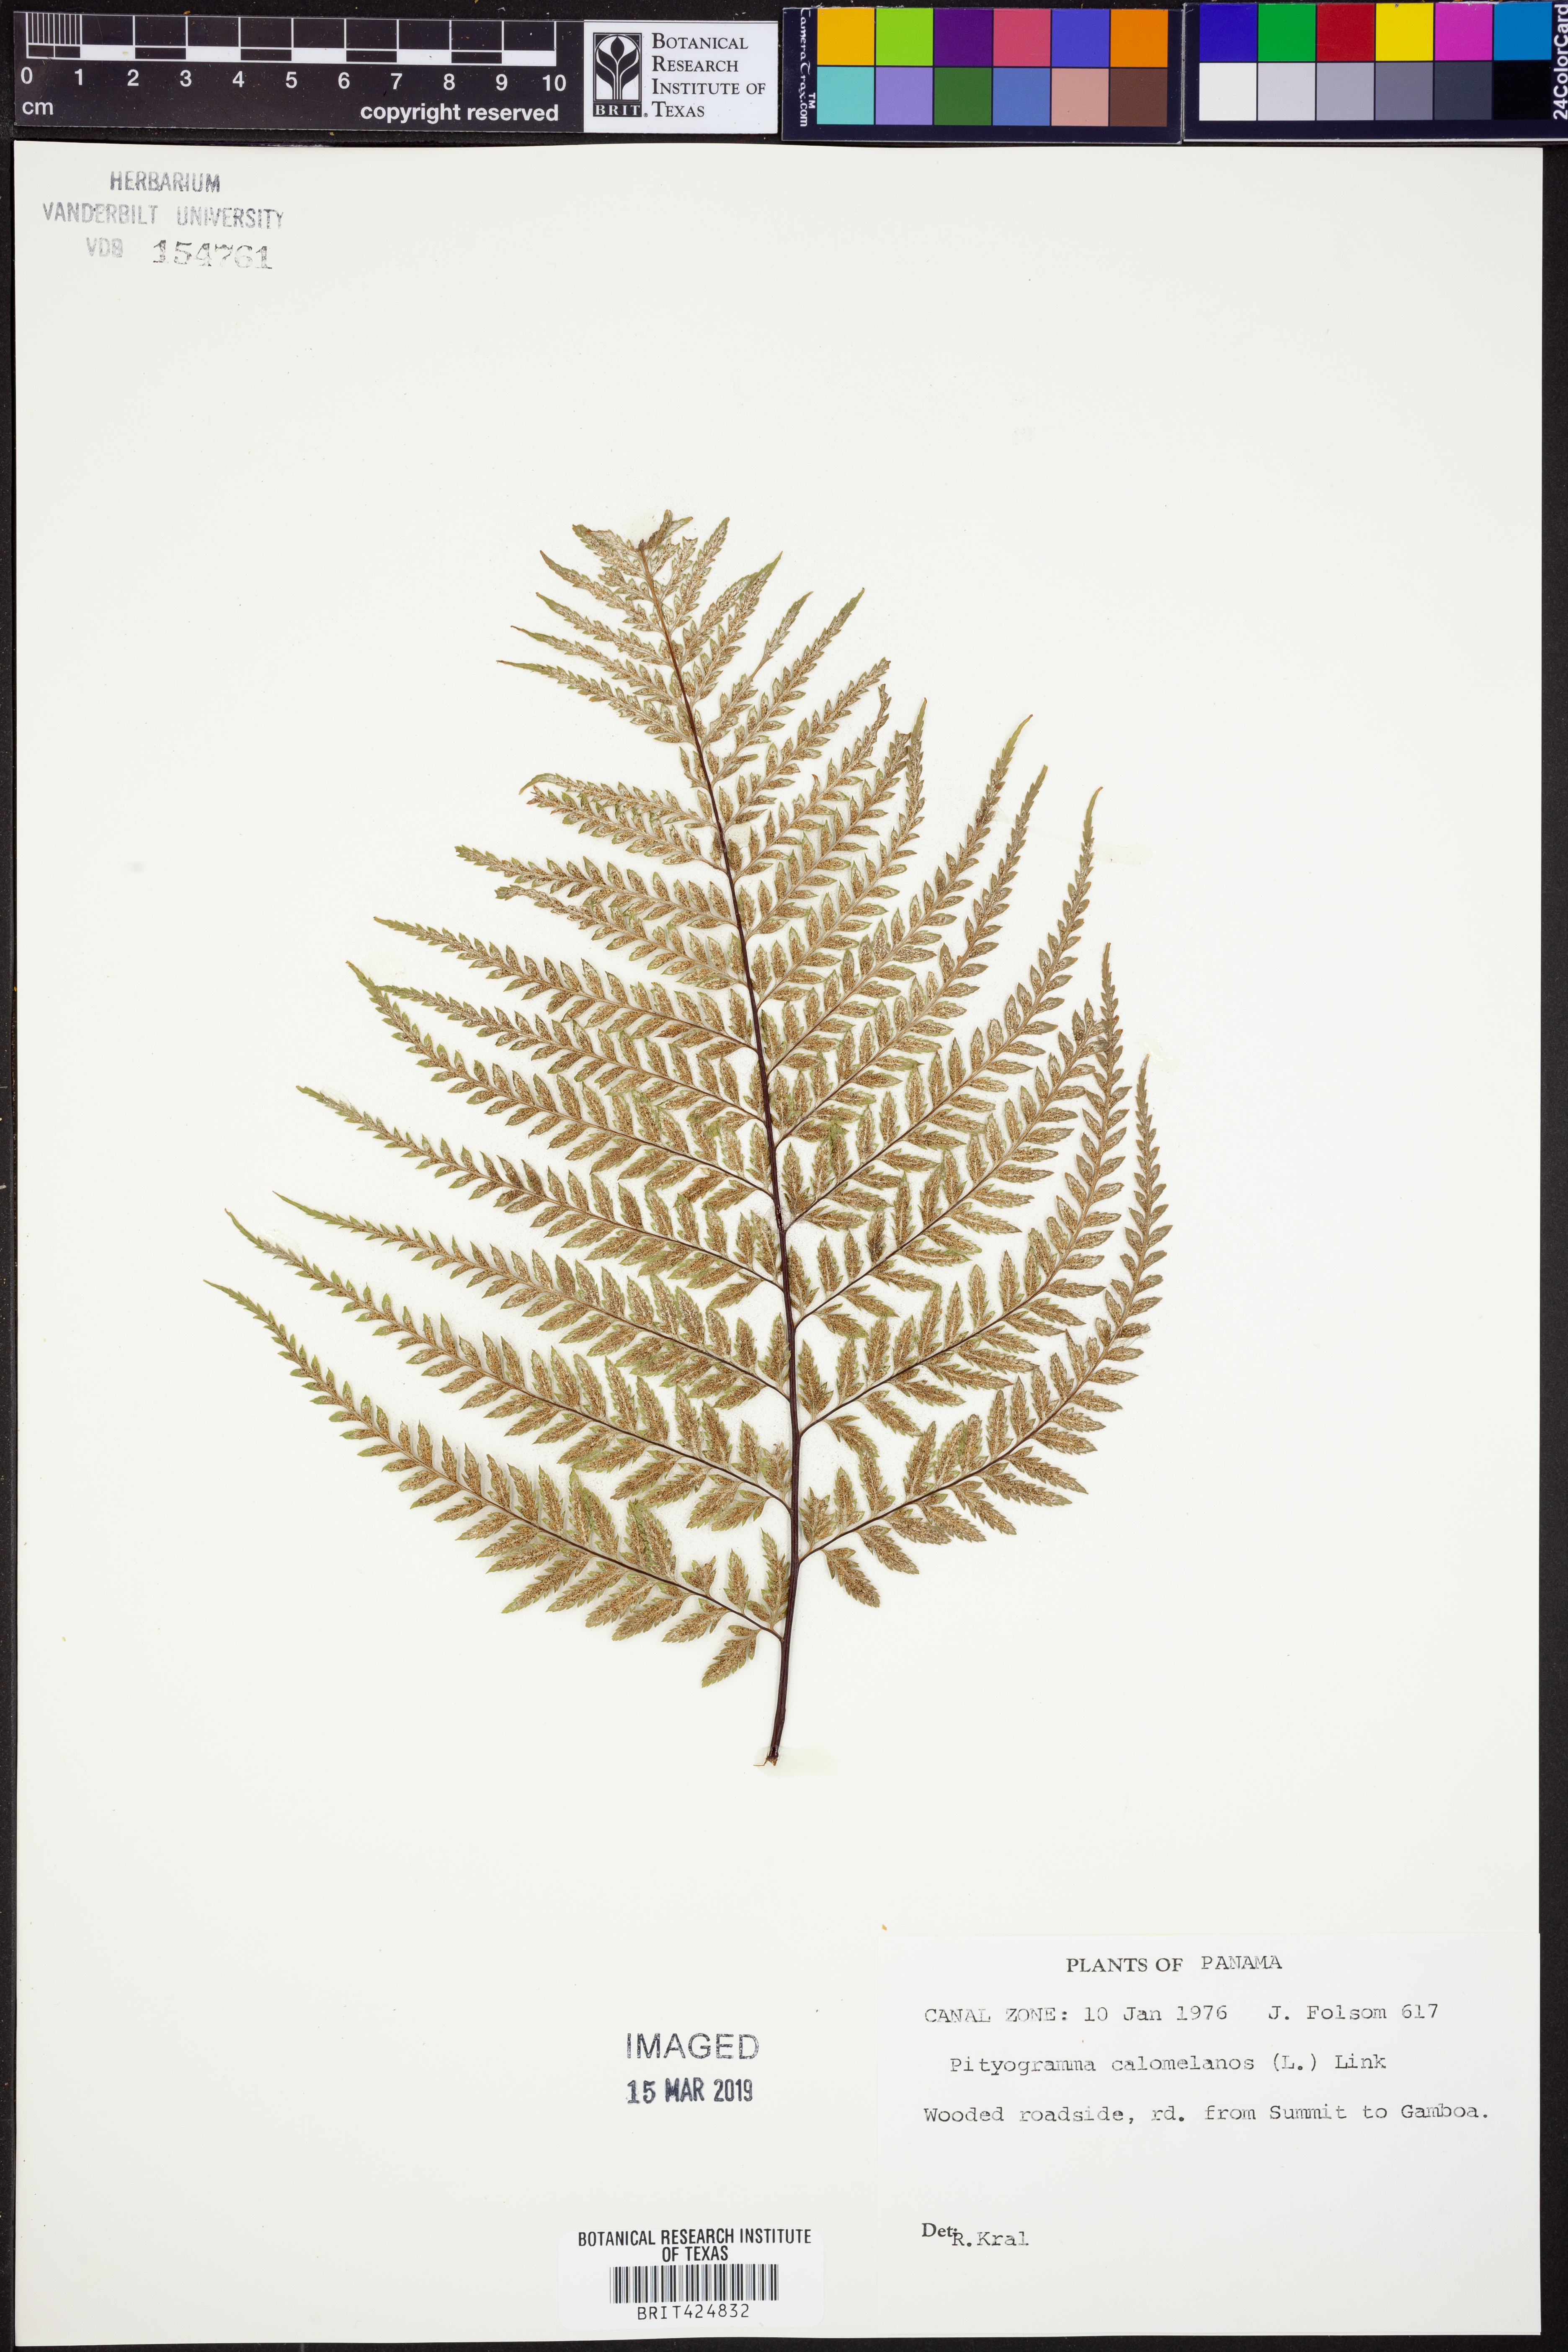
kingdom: Plantae
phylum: Tracheophyta
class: Polypodiopsida
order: Polypodiales
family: Pteridaceae
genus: Pityrogramma
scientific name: Pityrogramma calomelanos
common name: Dixie silverback fern
